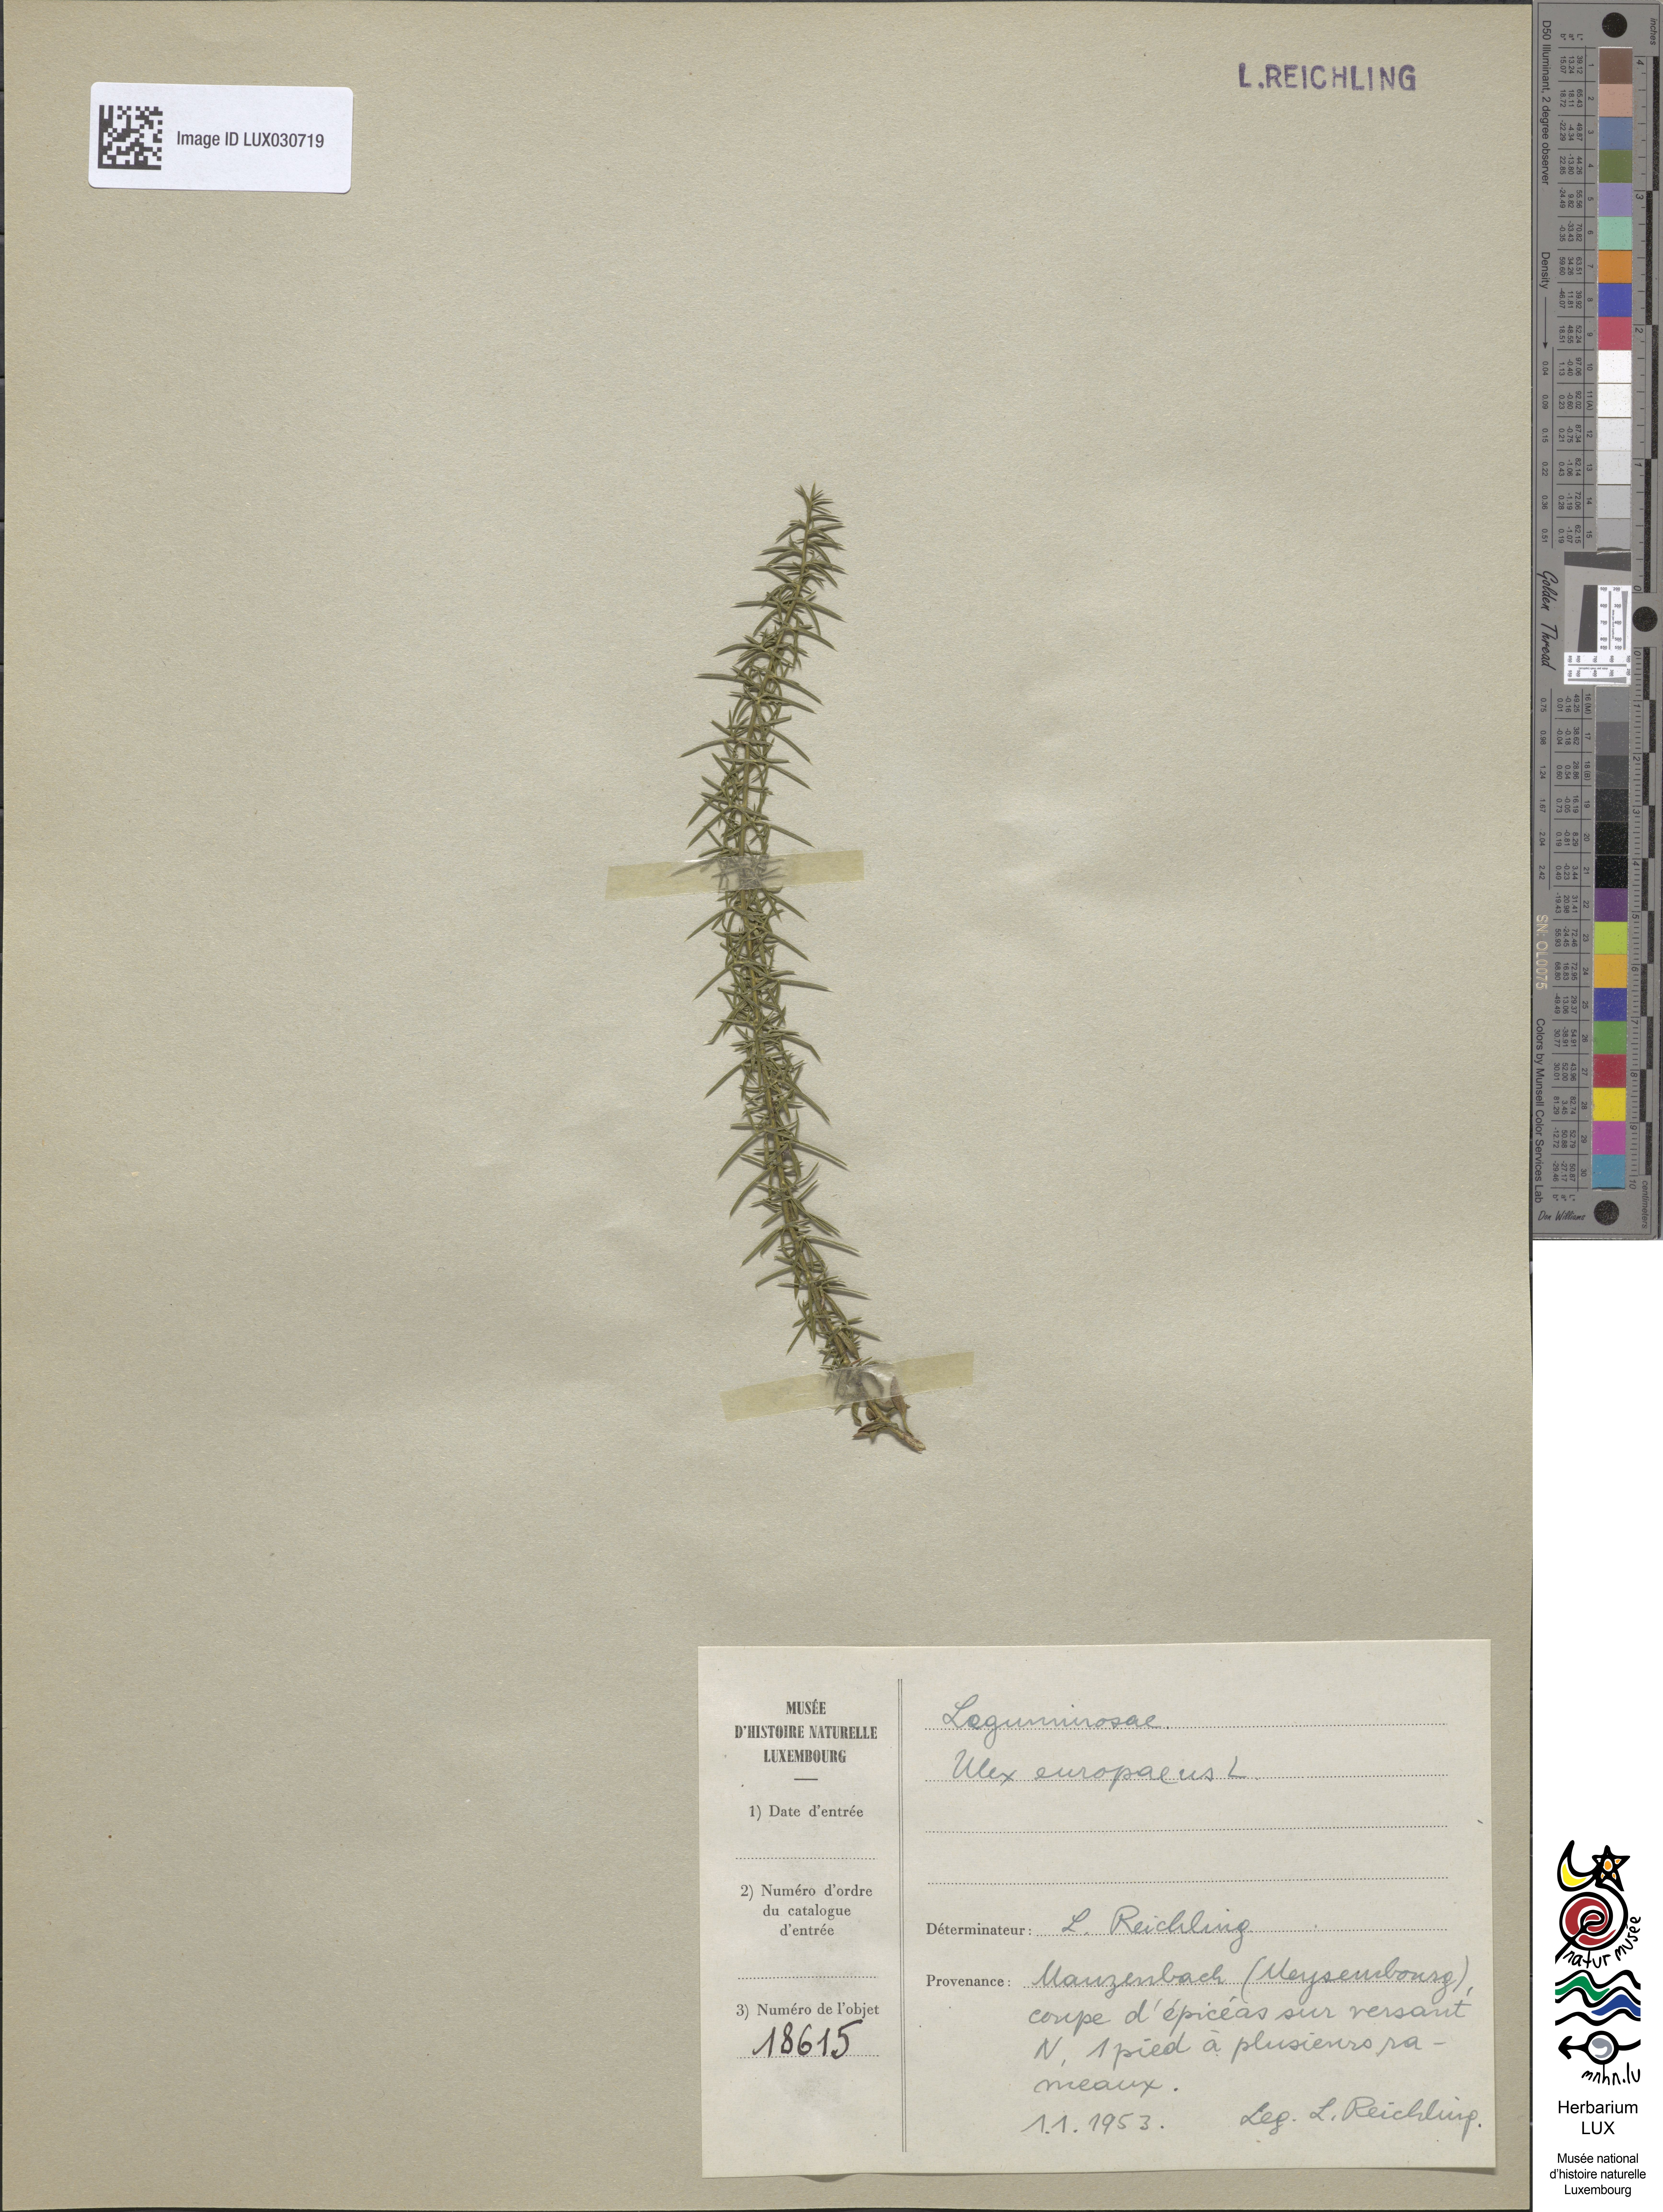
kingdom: Plantae
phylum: Tracheophyta
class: Magnoliopsida
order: Fabales
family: Fabaceae
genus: Ulex
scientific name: Ulex europaeus
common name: Common gorse
